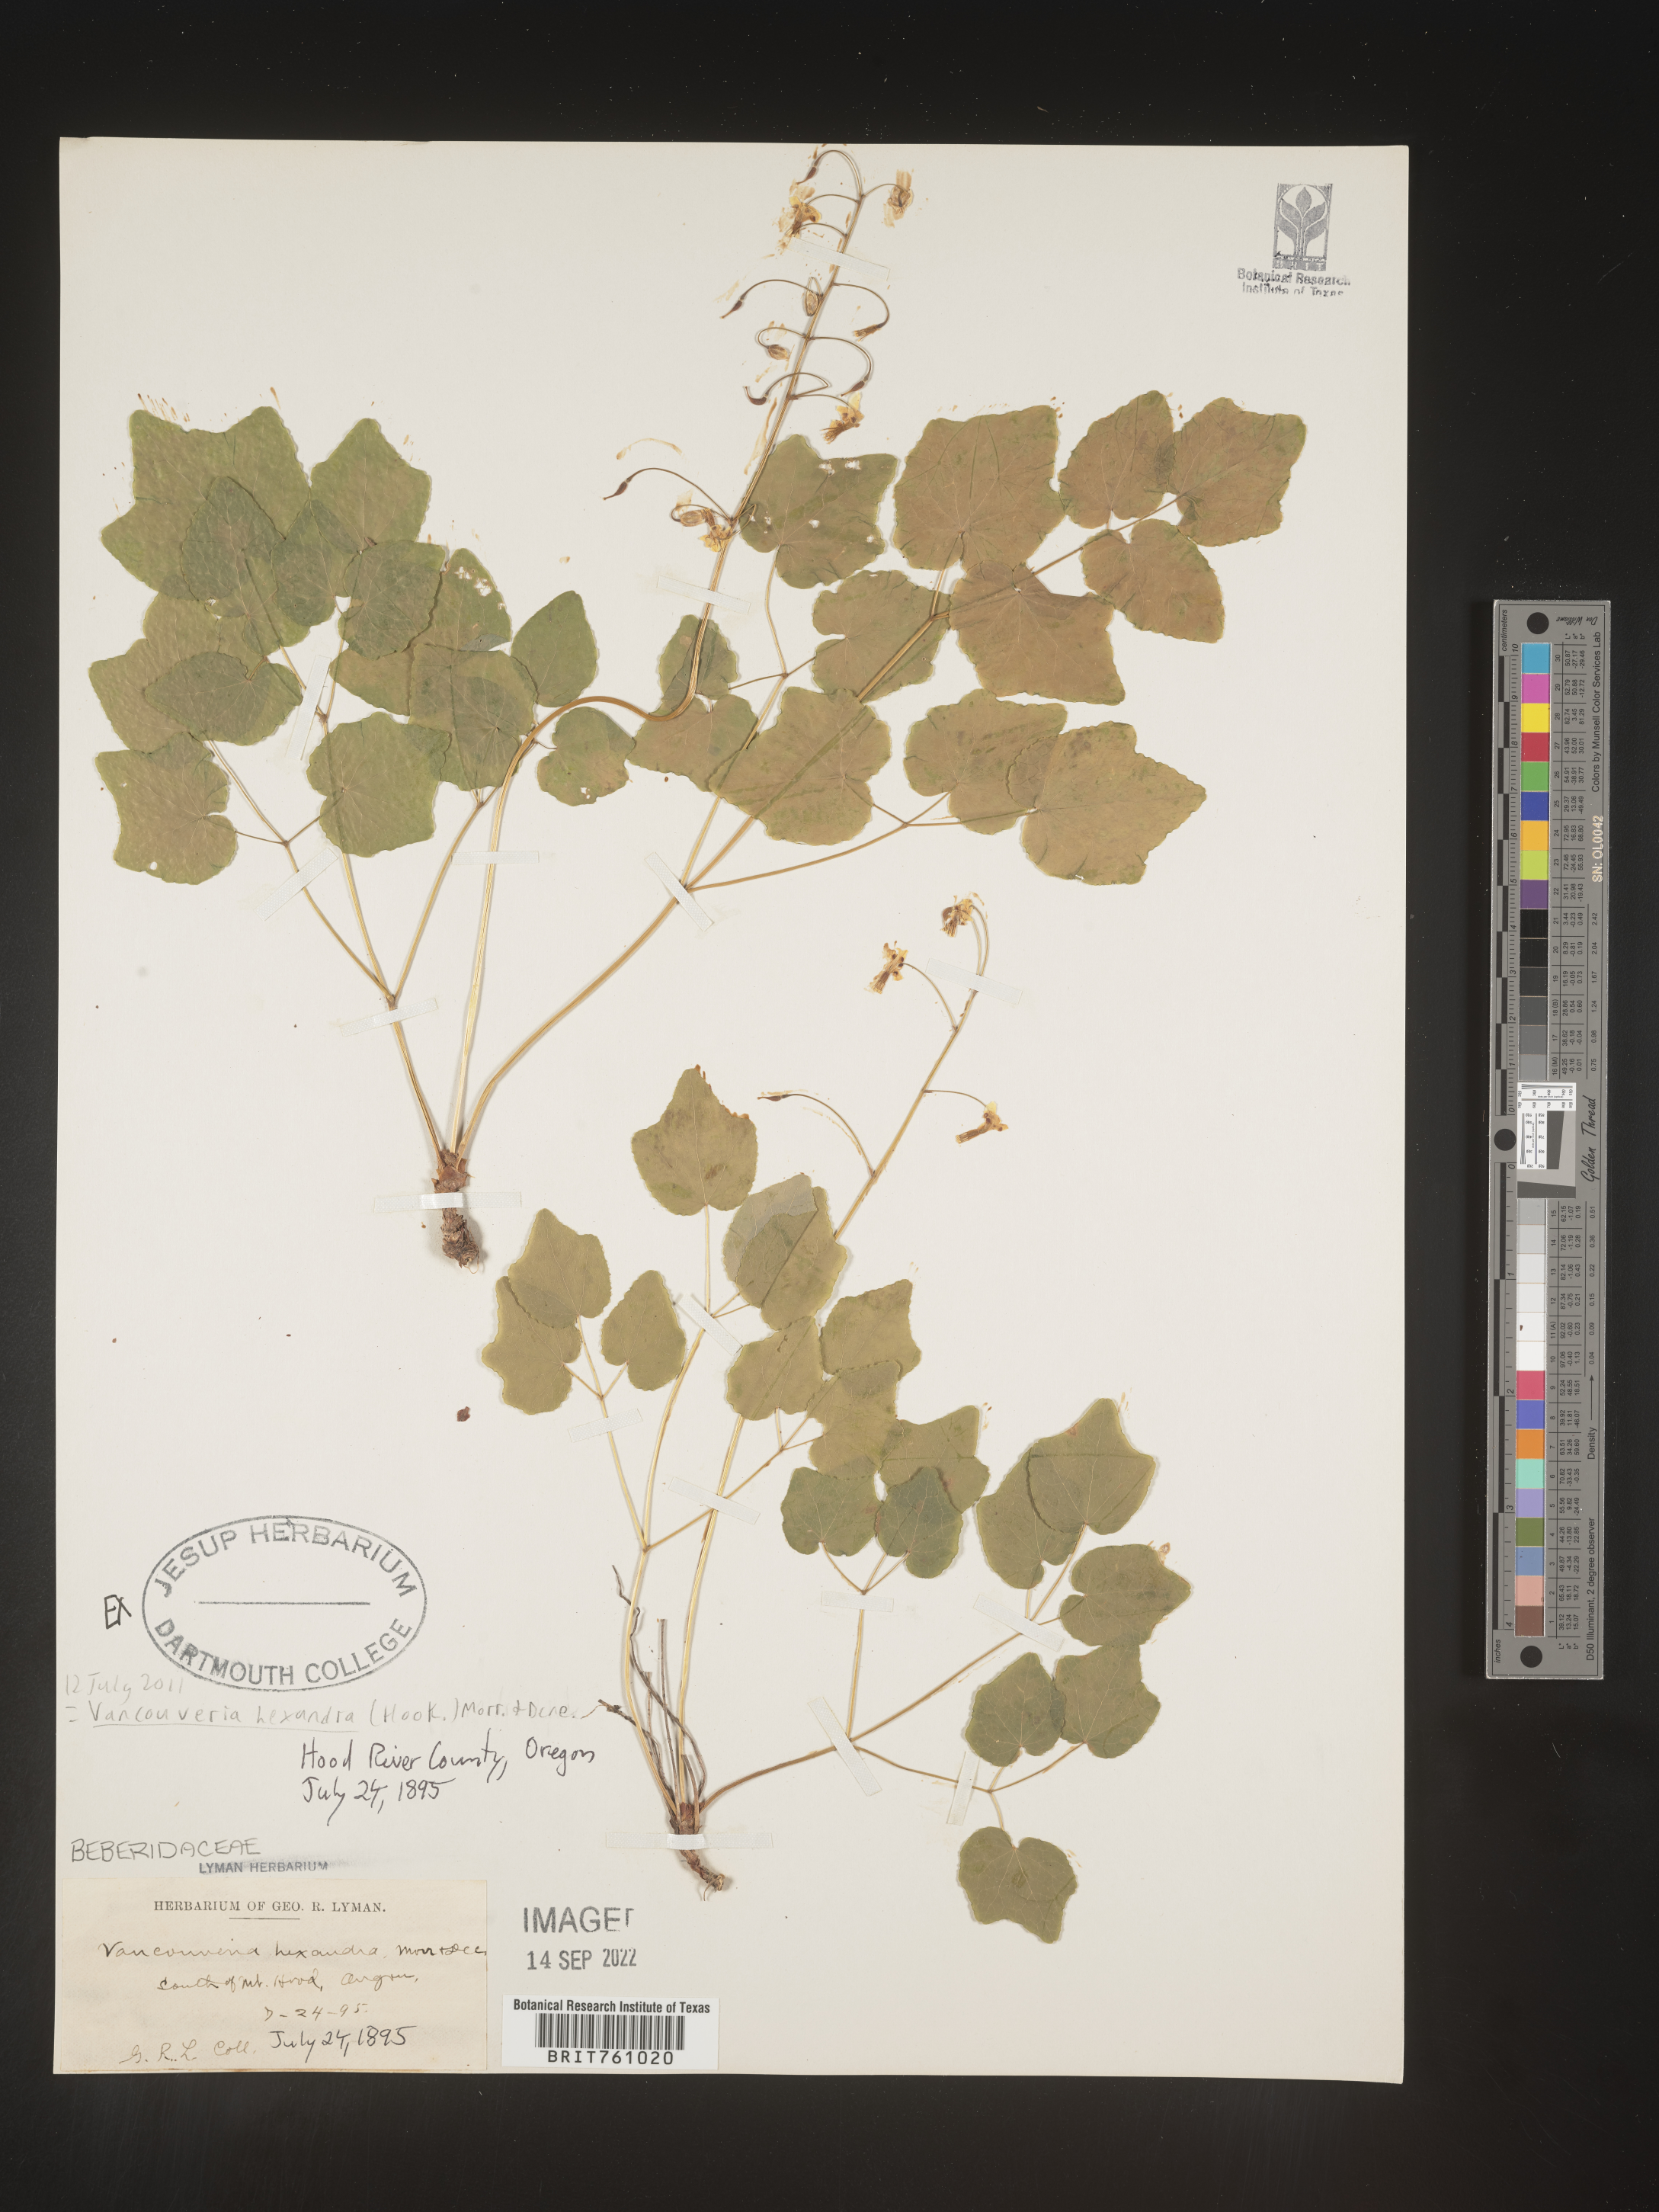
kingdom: Plantae
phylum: Tracheophyta
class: Magnoliopsida
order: Ranunculales
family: Berberidaceae
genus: Vancouveria
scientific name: Vancouveria
